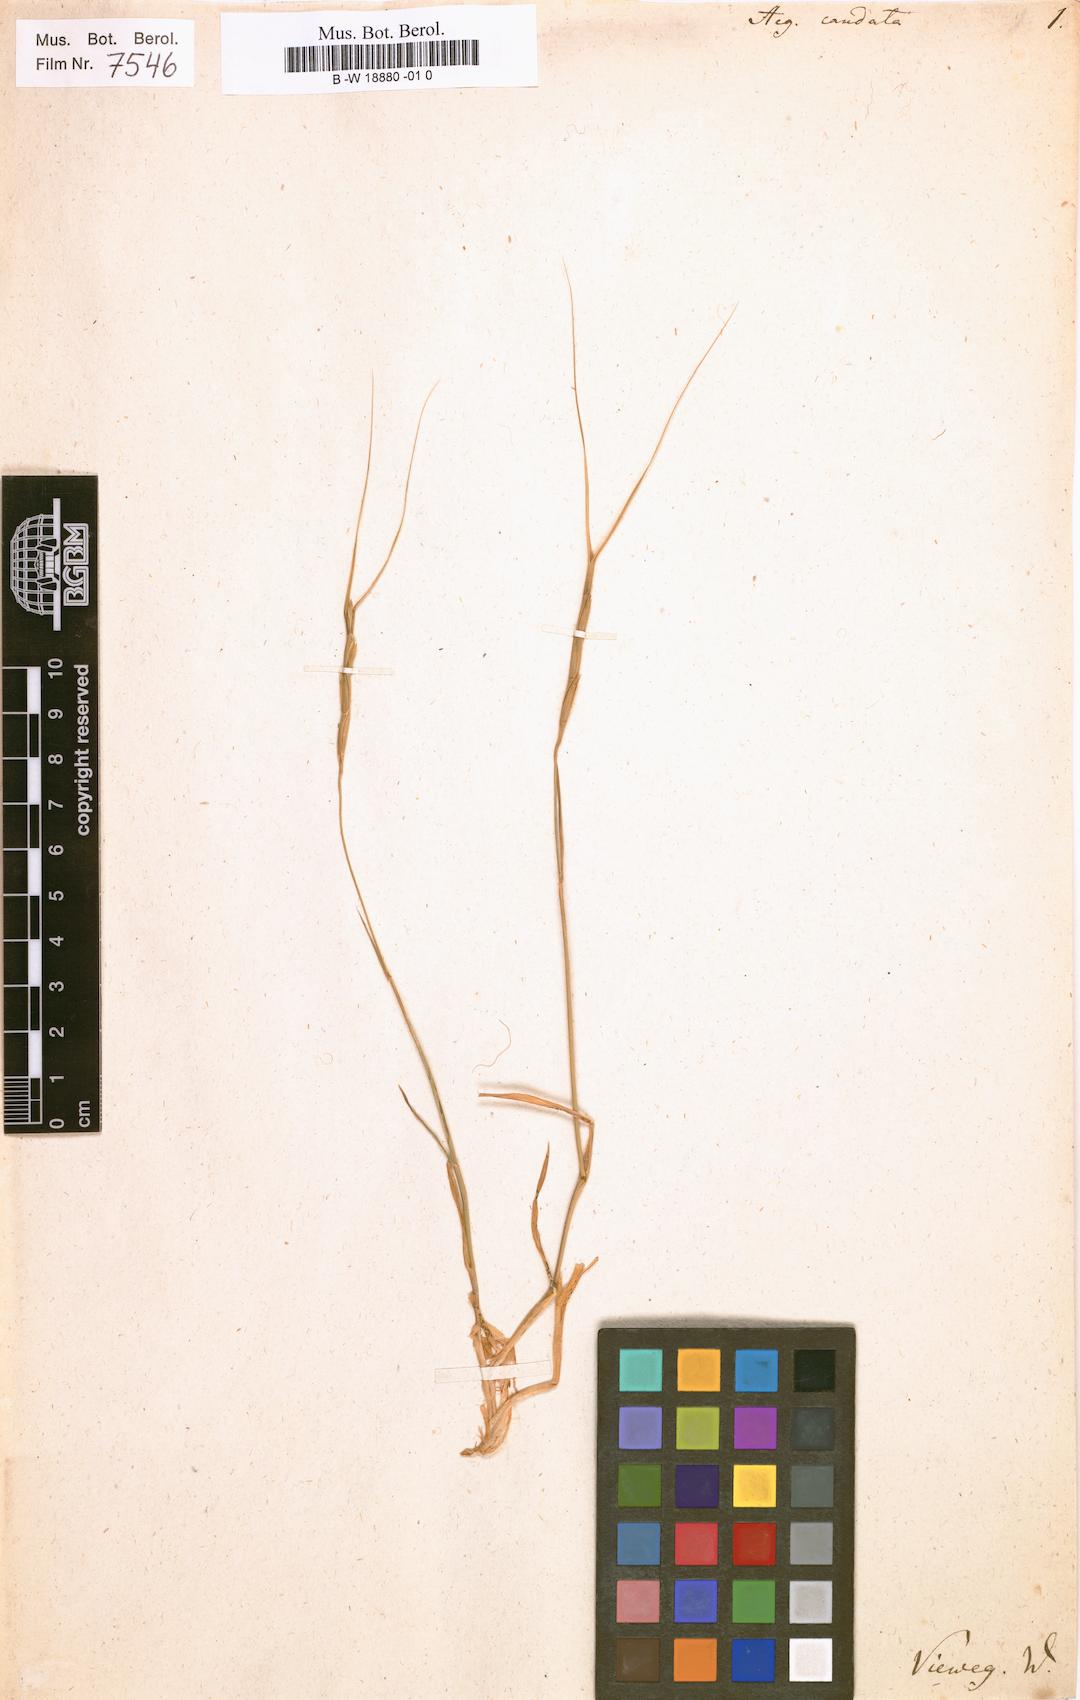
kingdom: Plantae
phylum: Tracheophyta
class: Liliopsida
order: Poales
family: Poaceae
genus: Aegilops
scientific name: Aegilops caudata
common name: Cretan hard-grass
